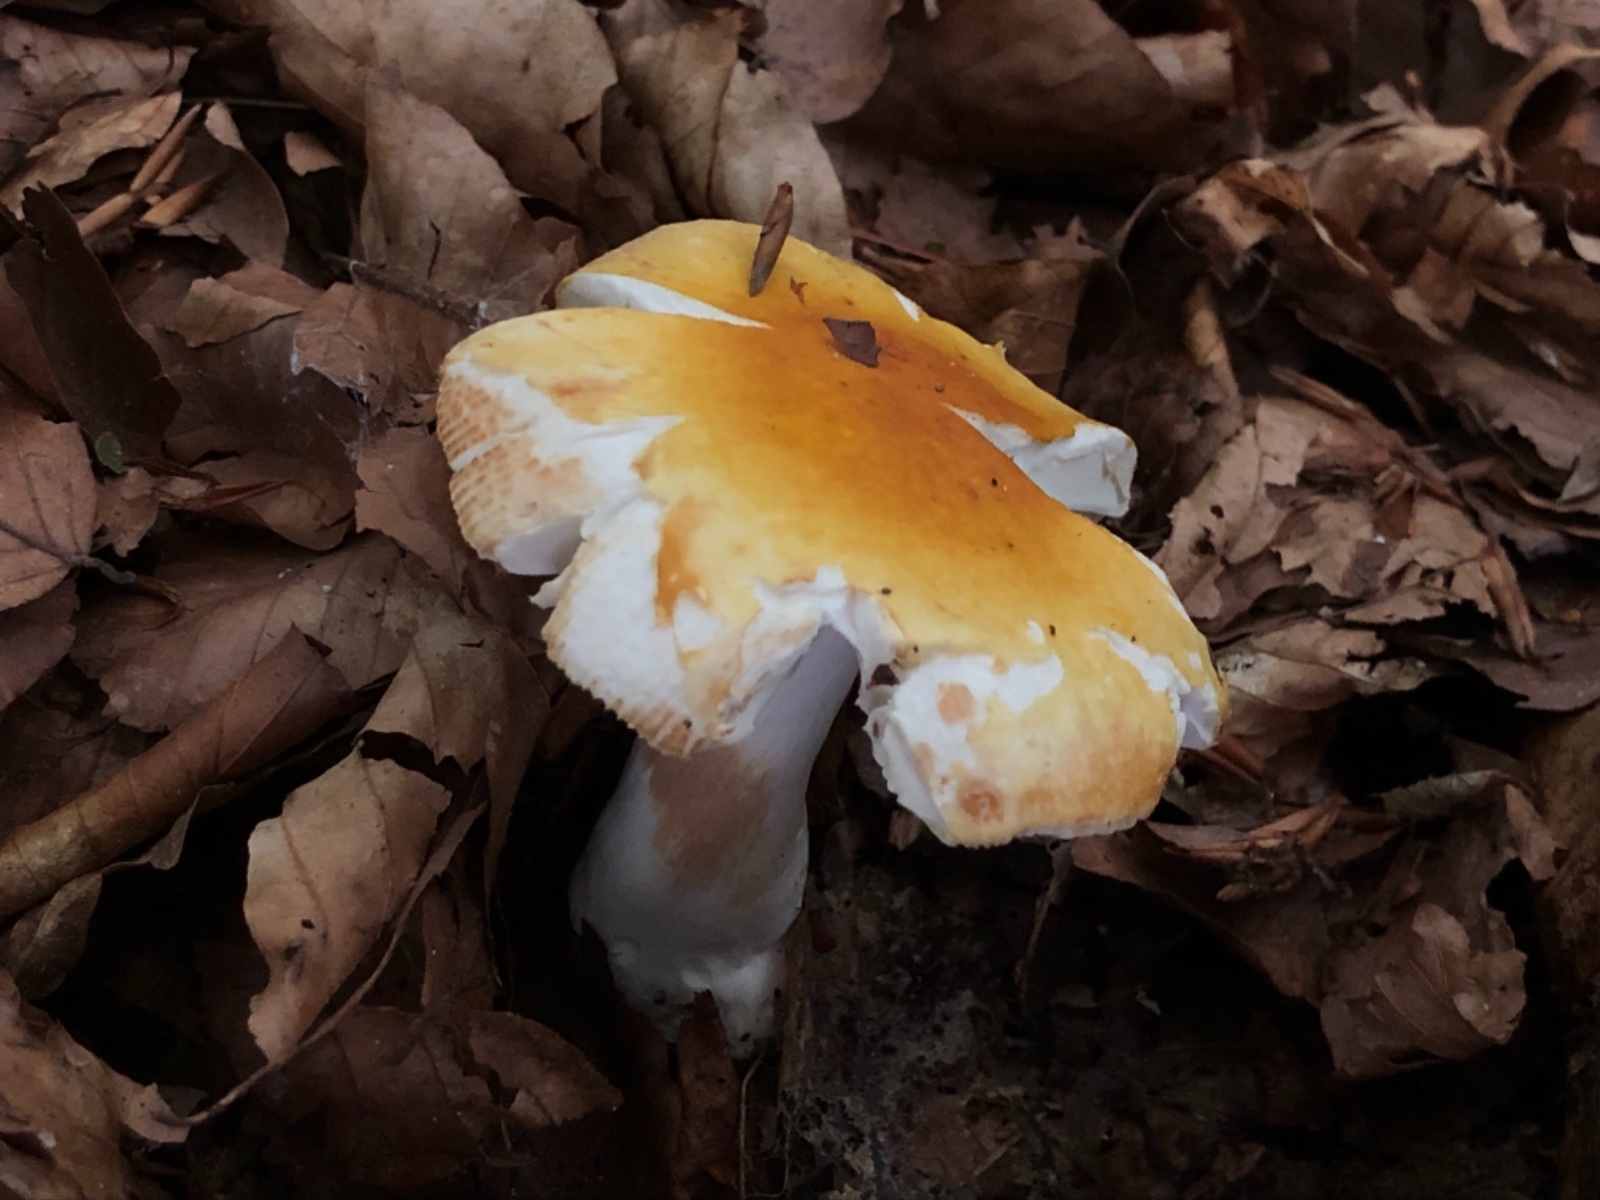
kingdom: Fungi
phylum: Basidiomycota
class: Agaricomycetes
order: Russulales
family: Russulaceae
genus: Russula
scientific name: Russula
